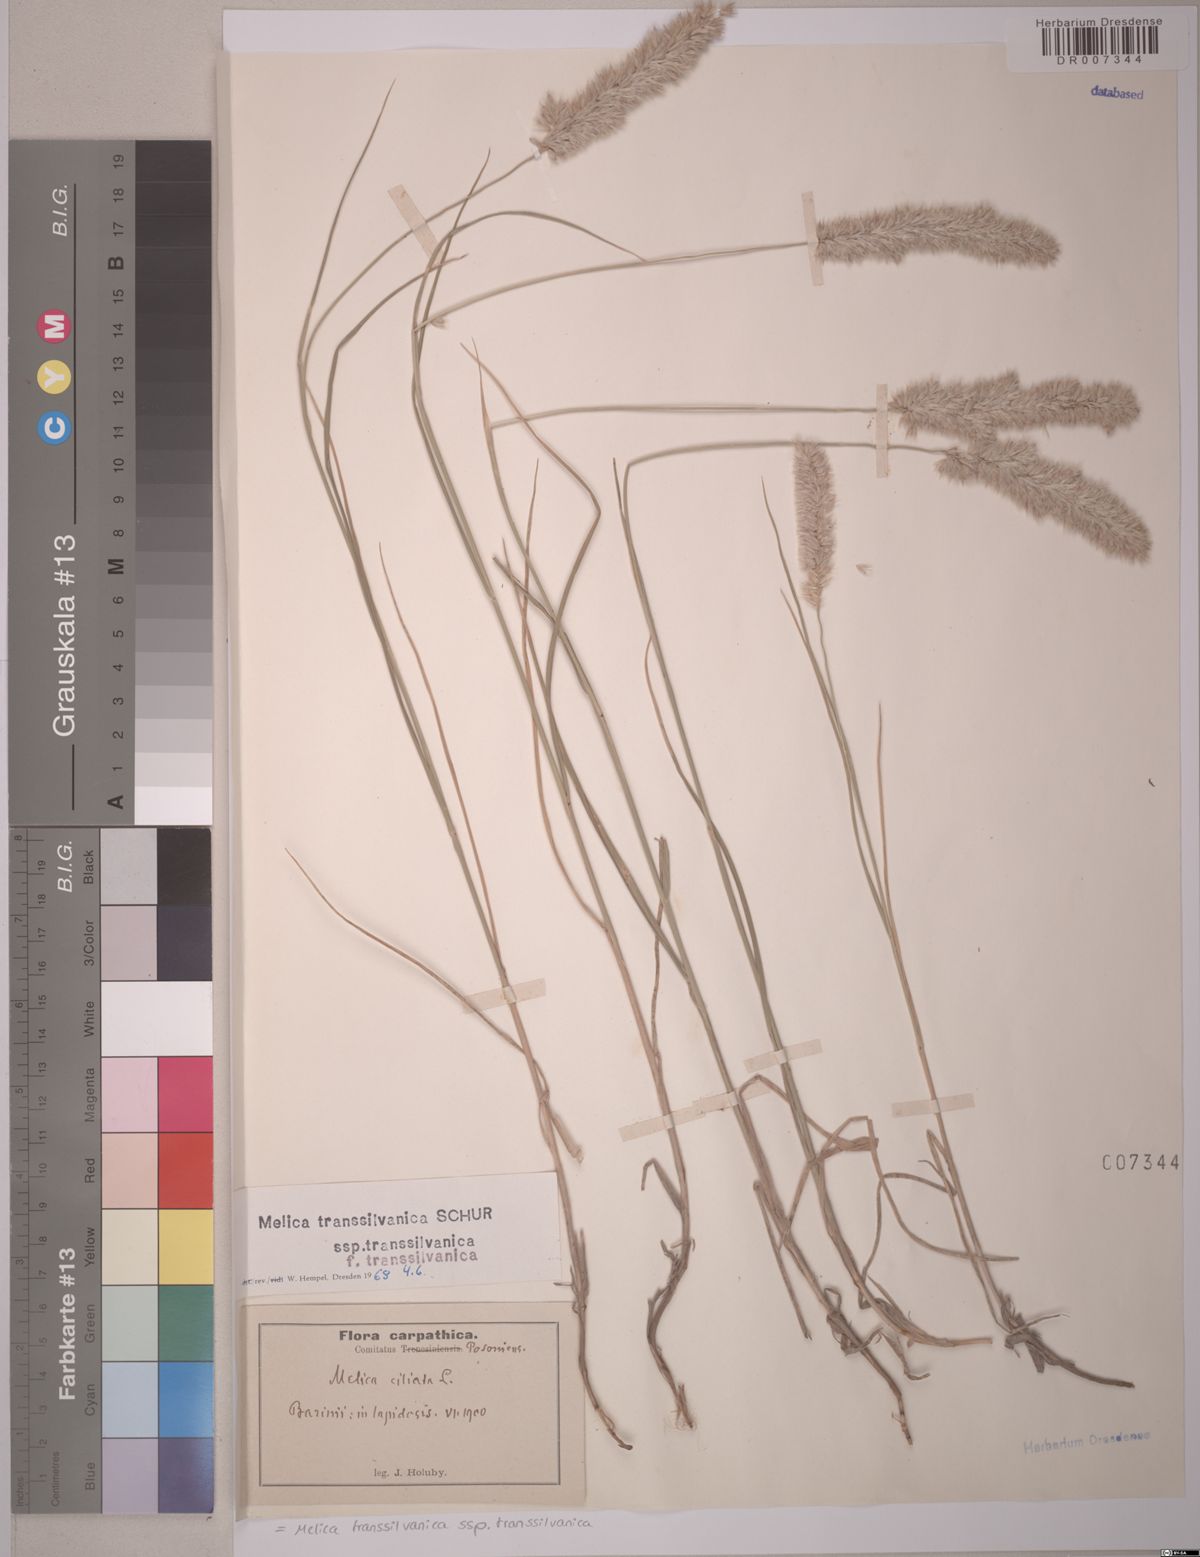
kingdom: Plantae
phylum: Tracheophyta
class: Liliopsida
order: Poales
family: Poaceae
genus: Melica
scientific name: Melica transsilvanica
